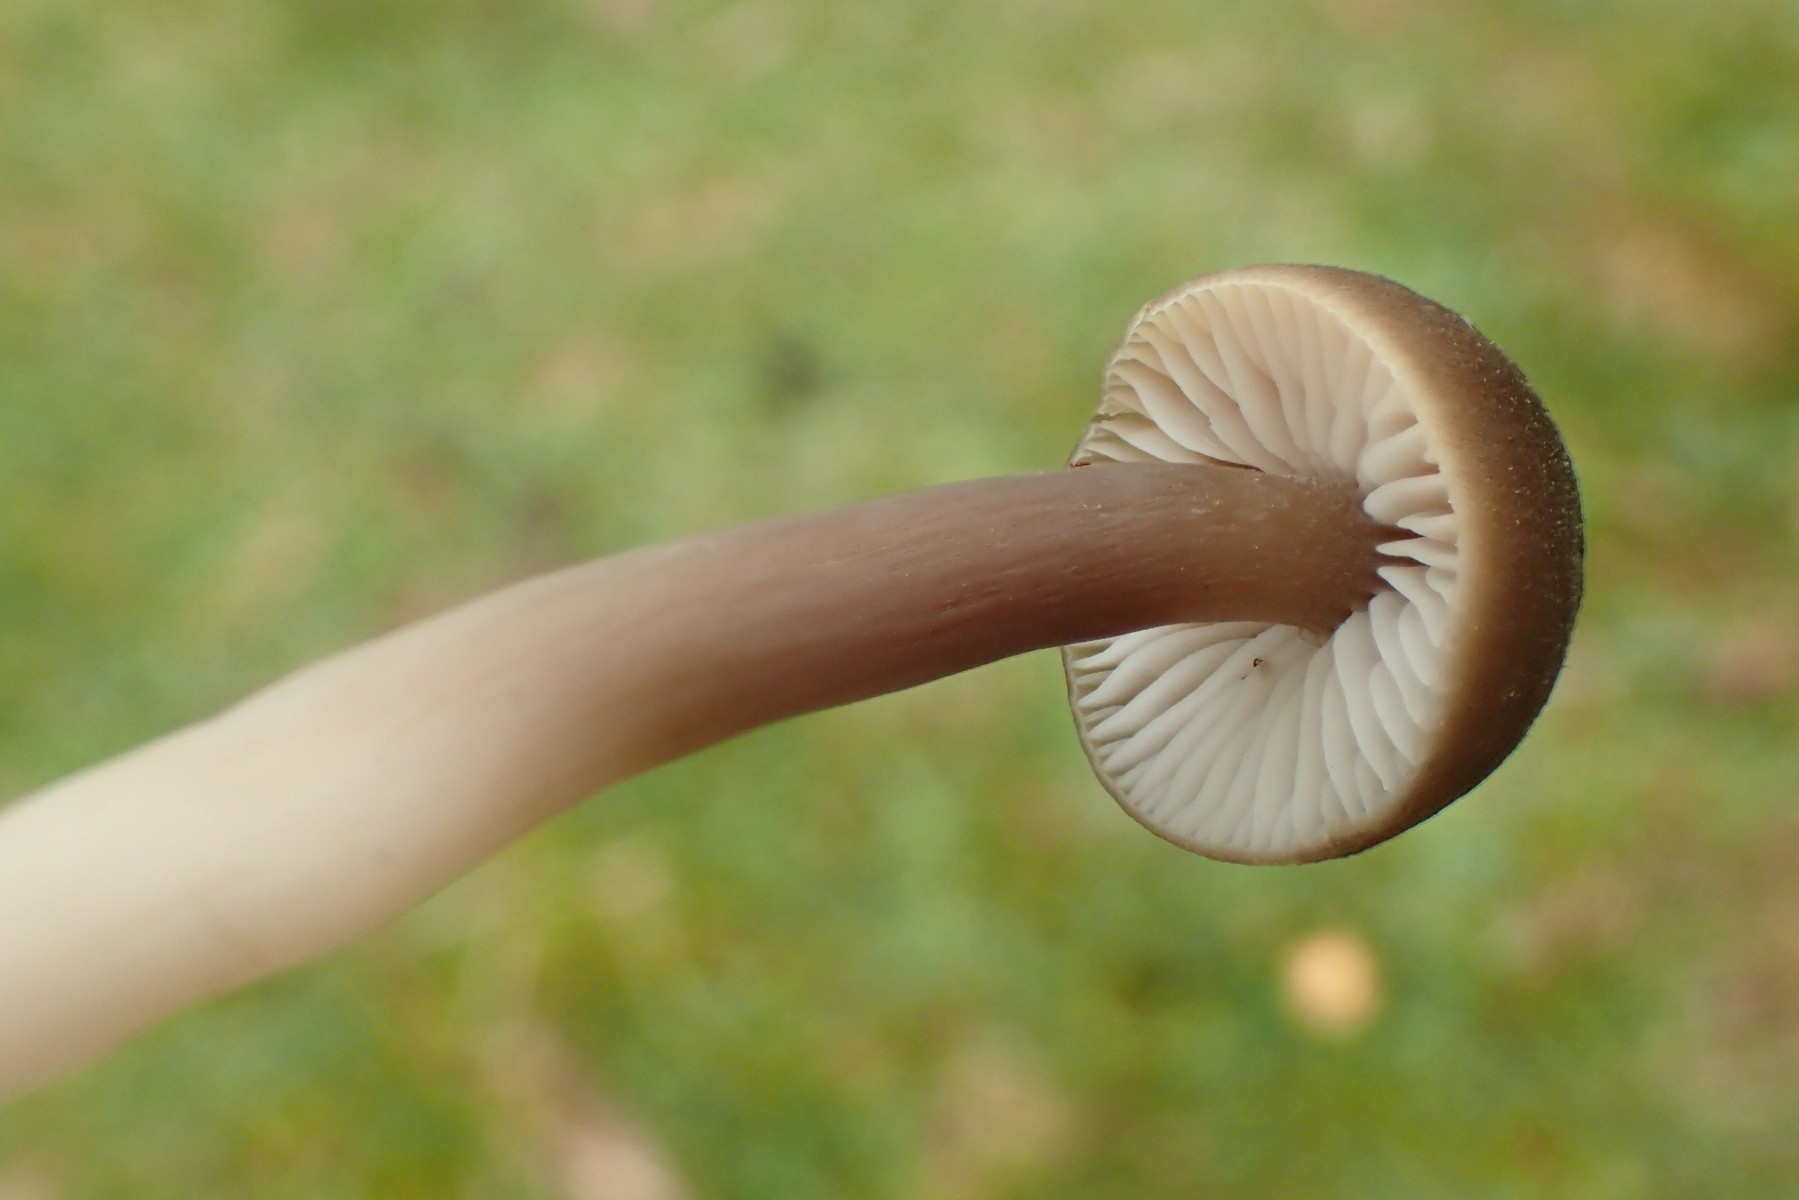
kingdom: Fungi
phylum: Basidiomycota
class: Agaricomycetes
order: Agaricales
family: Hygrophoraceae
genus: Neohygrocybe
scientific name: Neohygrocybe nitrata
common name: stinkende vokshat
